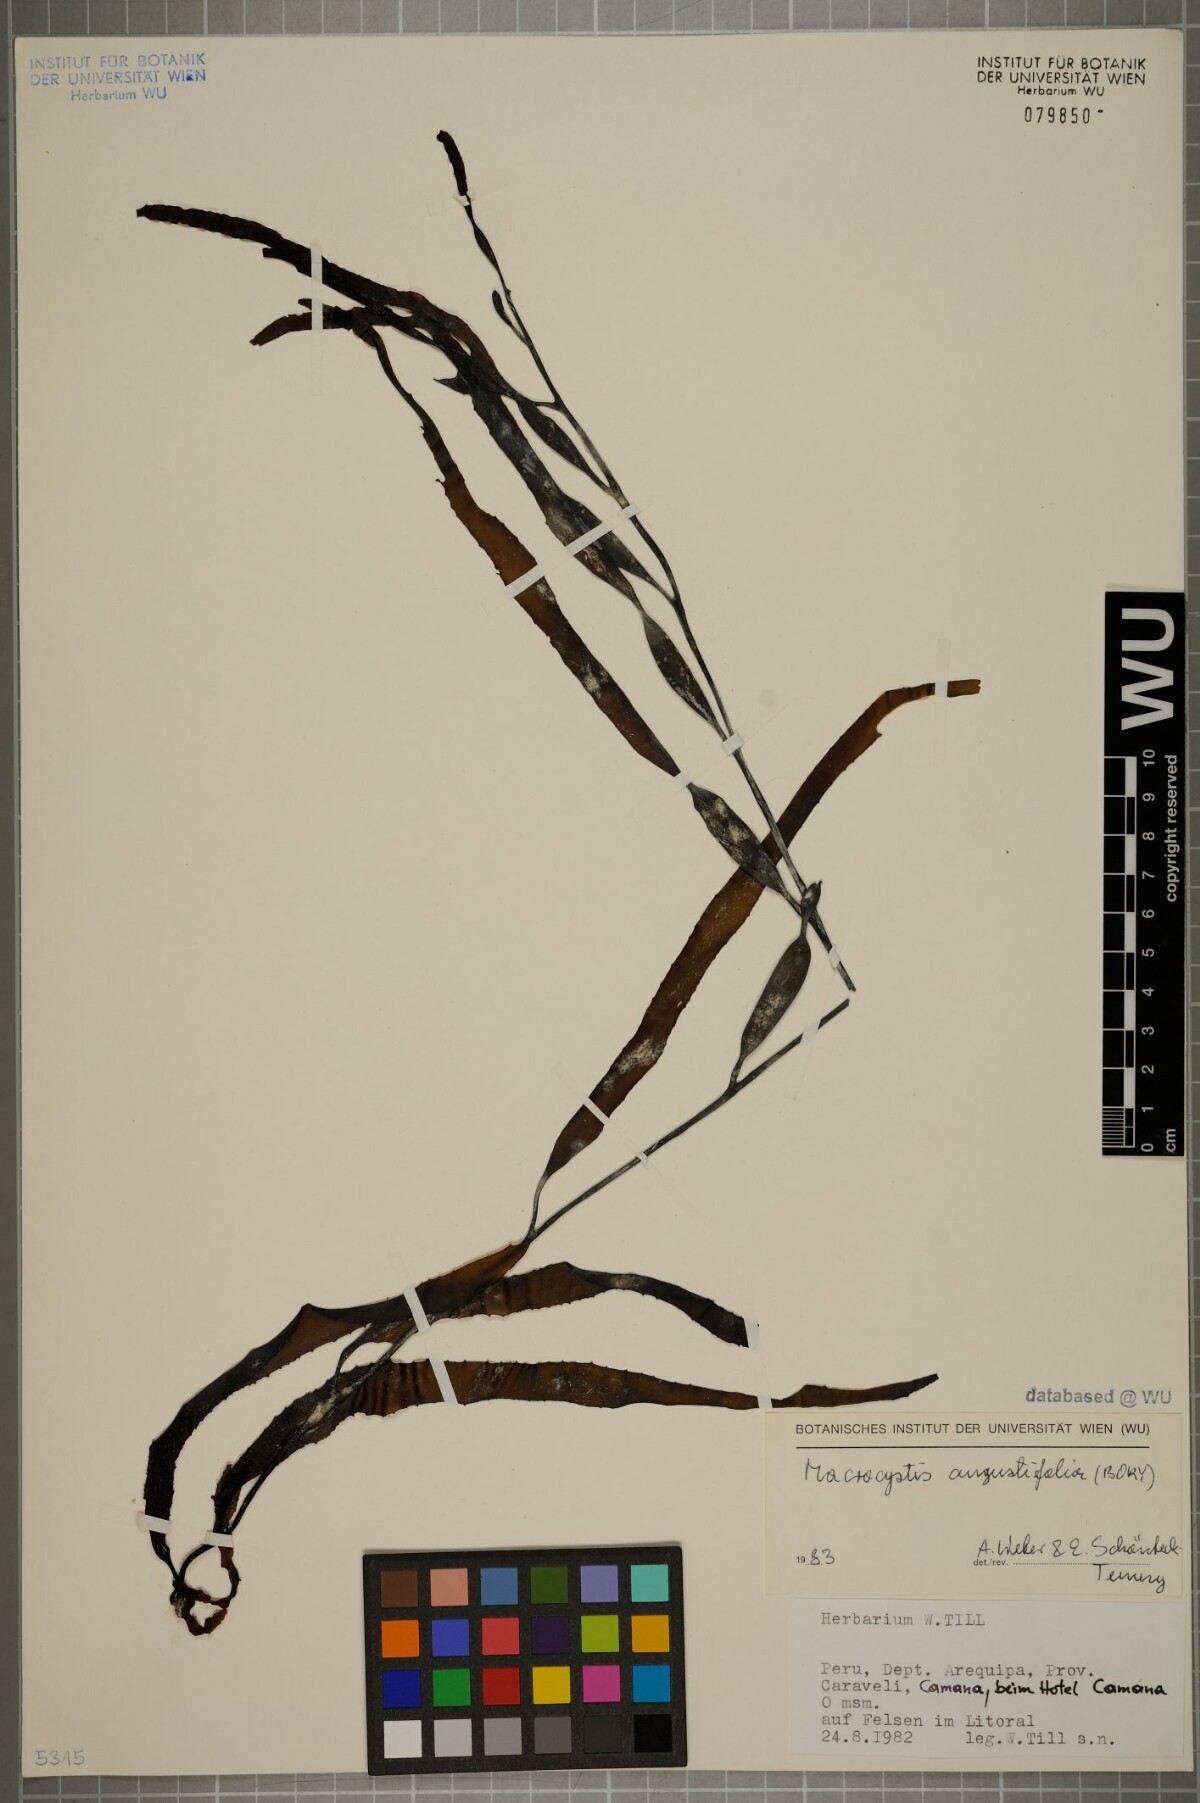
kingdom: Chromista
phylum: Ochrophyta
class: Phaeophyceae
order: Laminariales
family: Laminariaceae
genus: Macrocystis
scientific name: Macrocystis angustifolia
